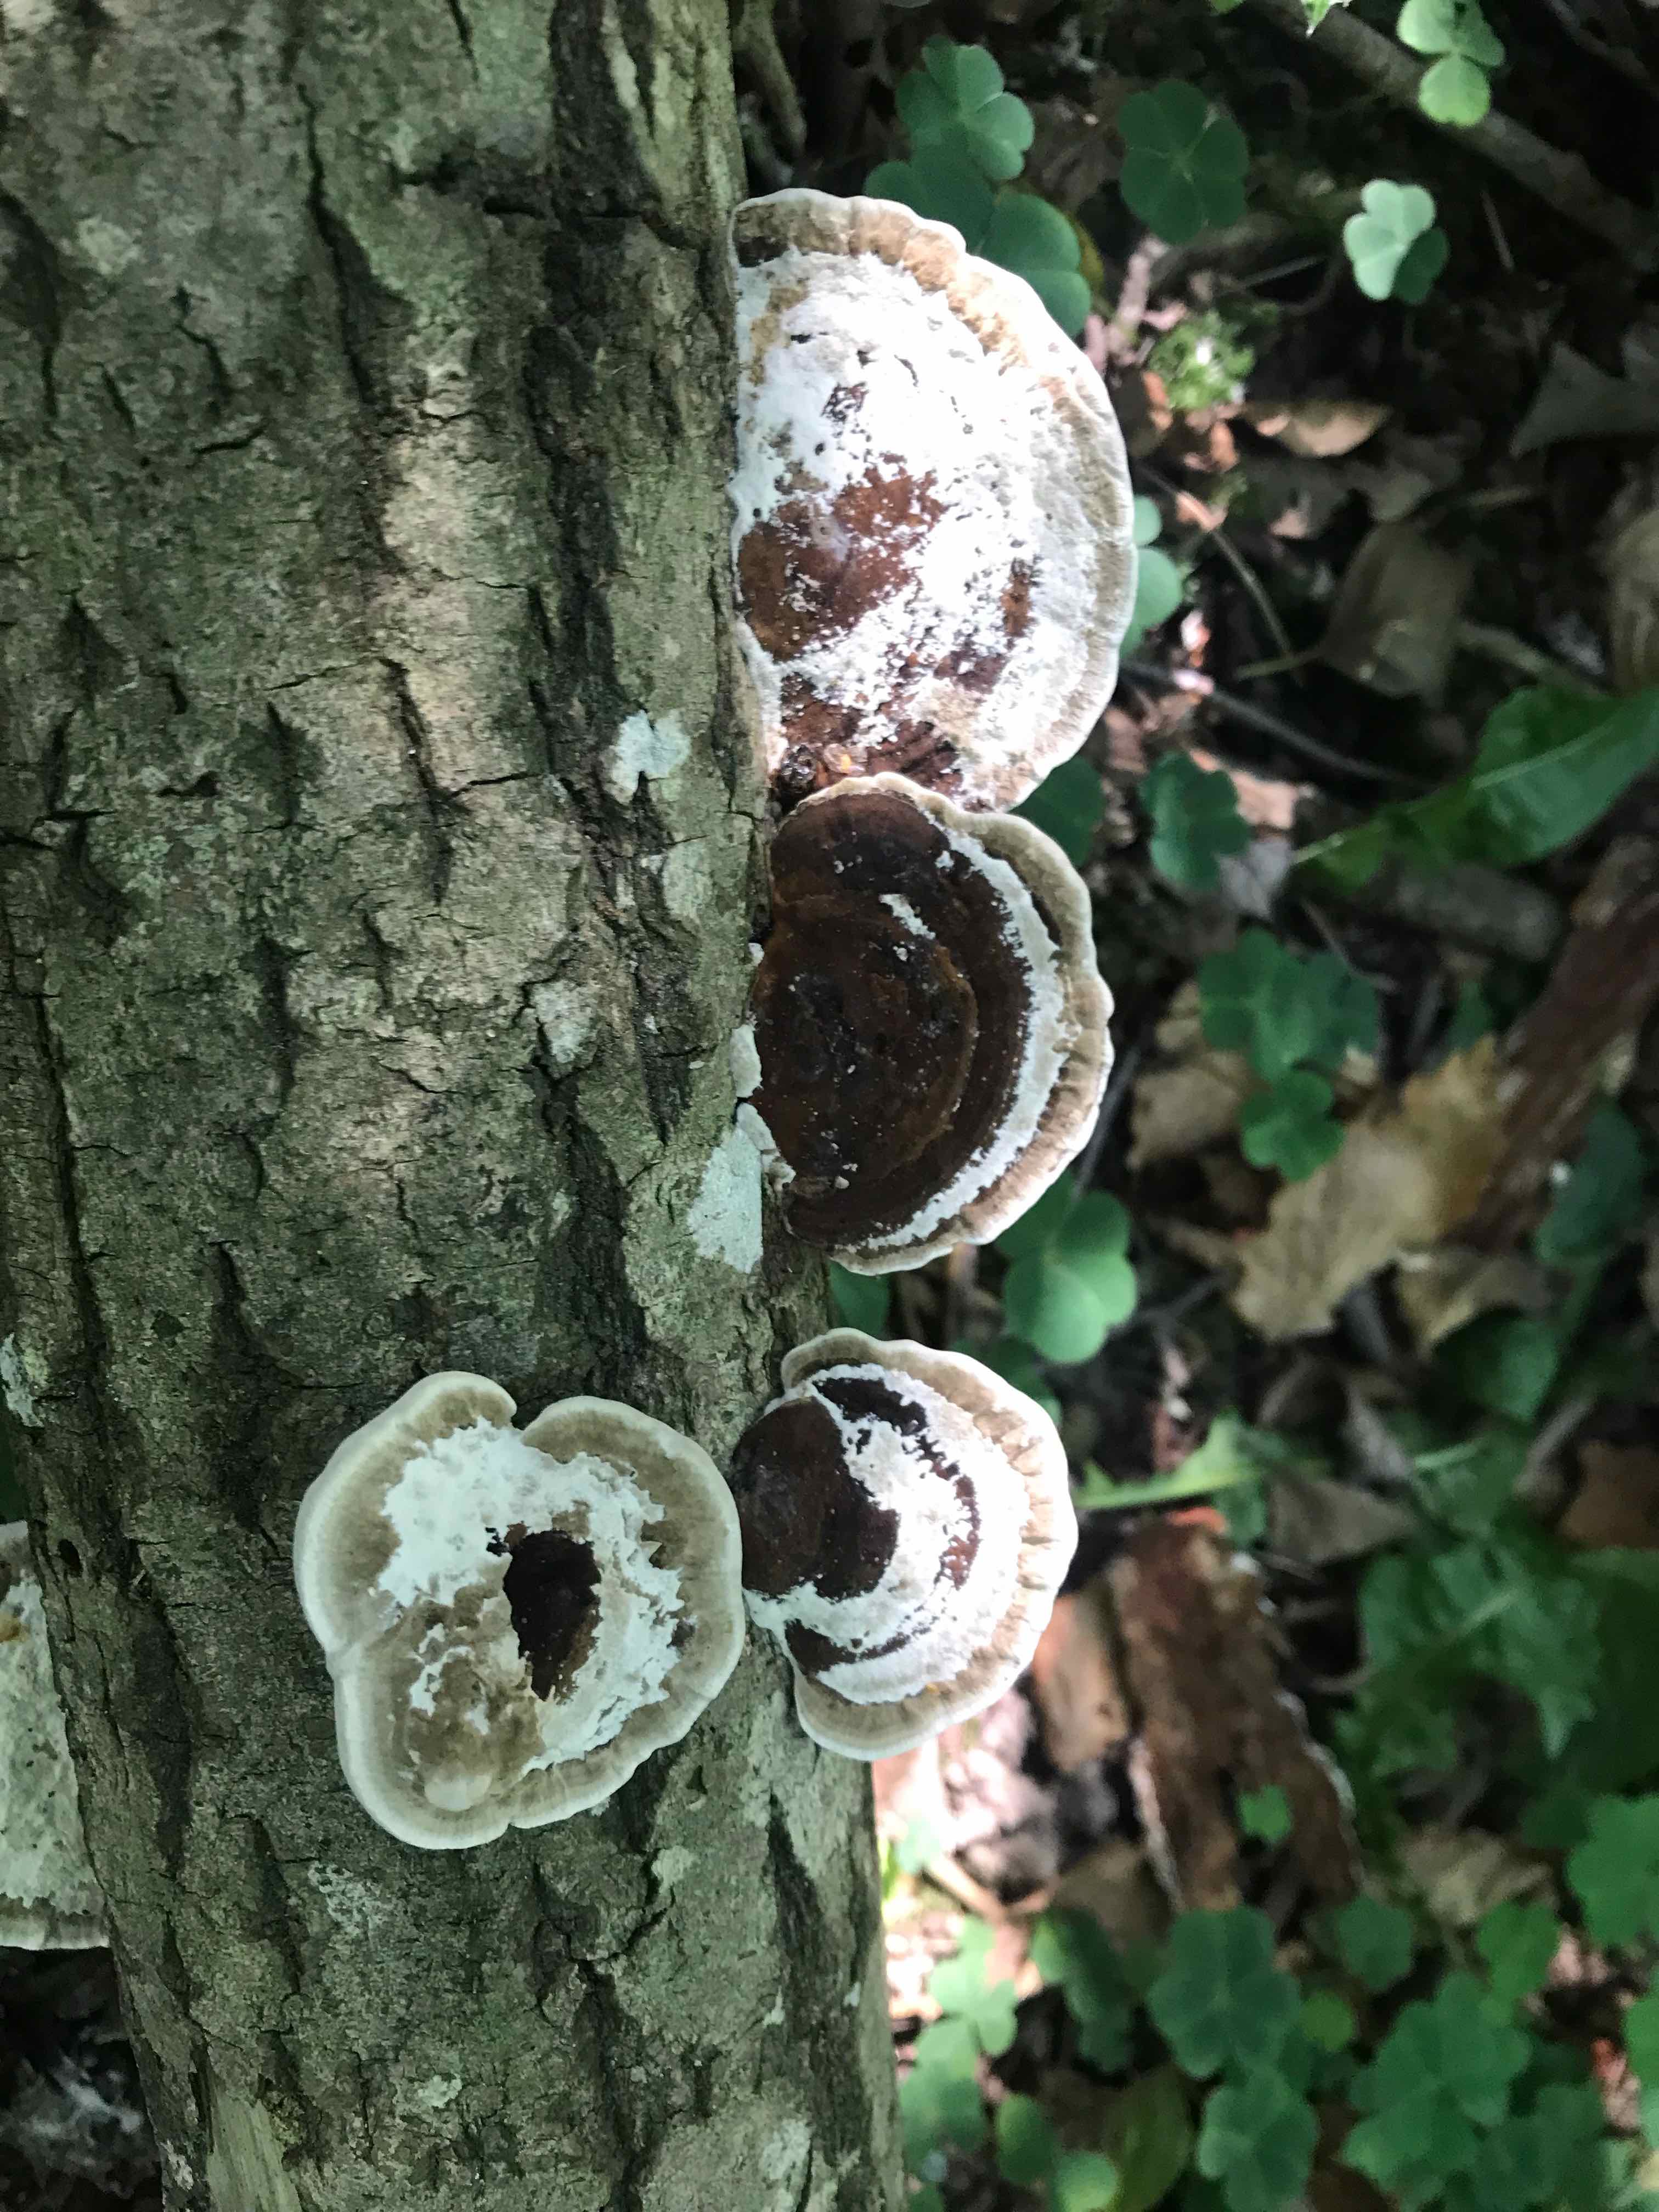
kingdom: Fungi
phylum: Basidiomycota
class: Agaricomycetes
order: Polyporales
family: Polyporaceae
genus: Daedaleopsis
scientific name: Daedaleopsis confragosa
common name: rødmende læderporesvamp
